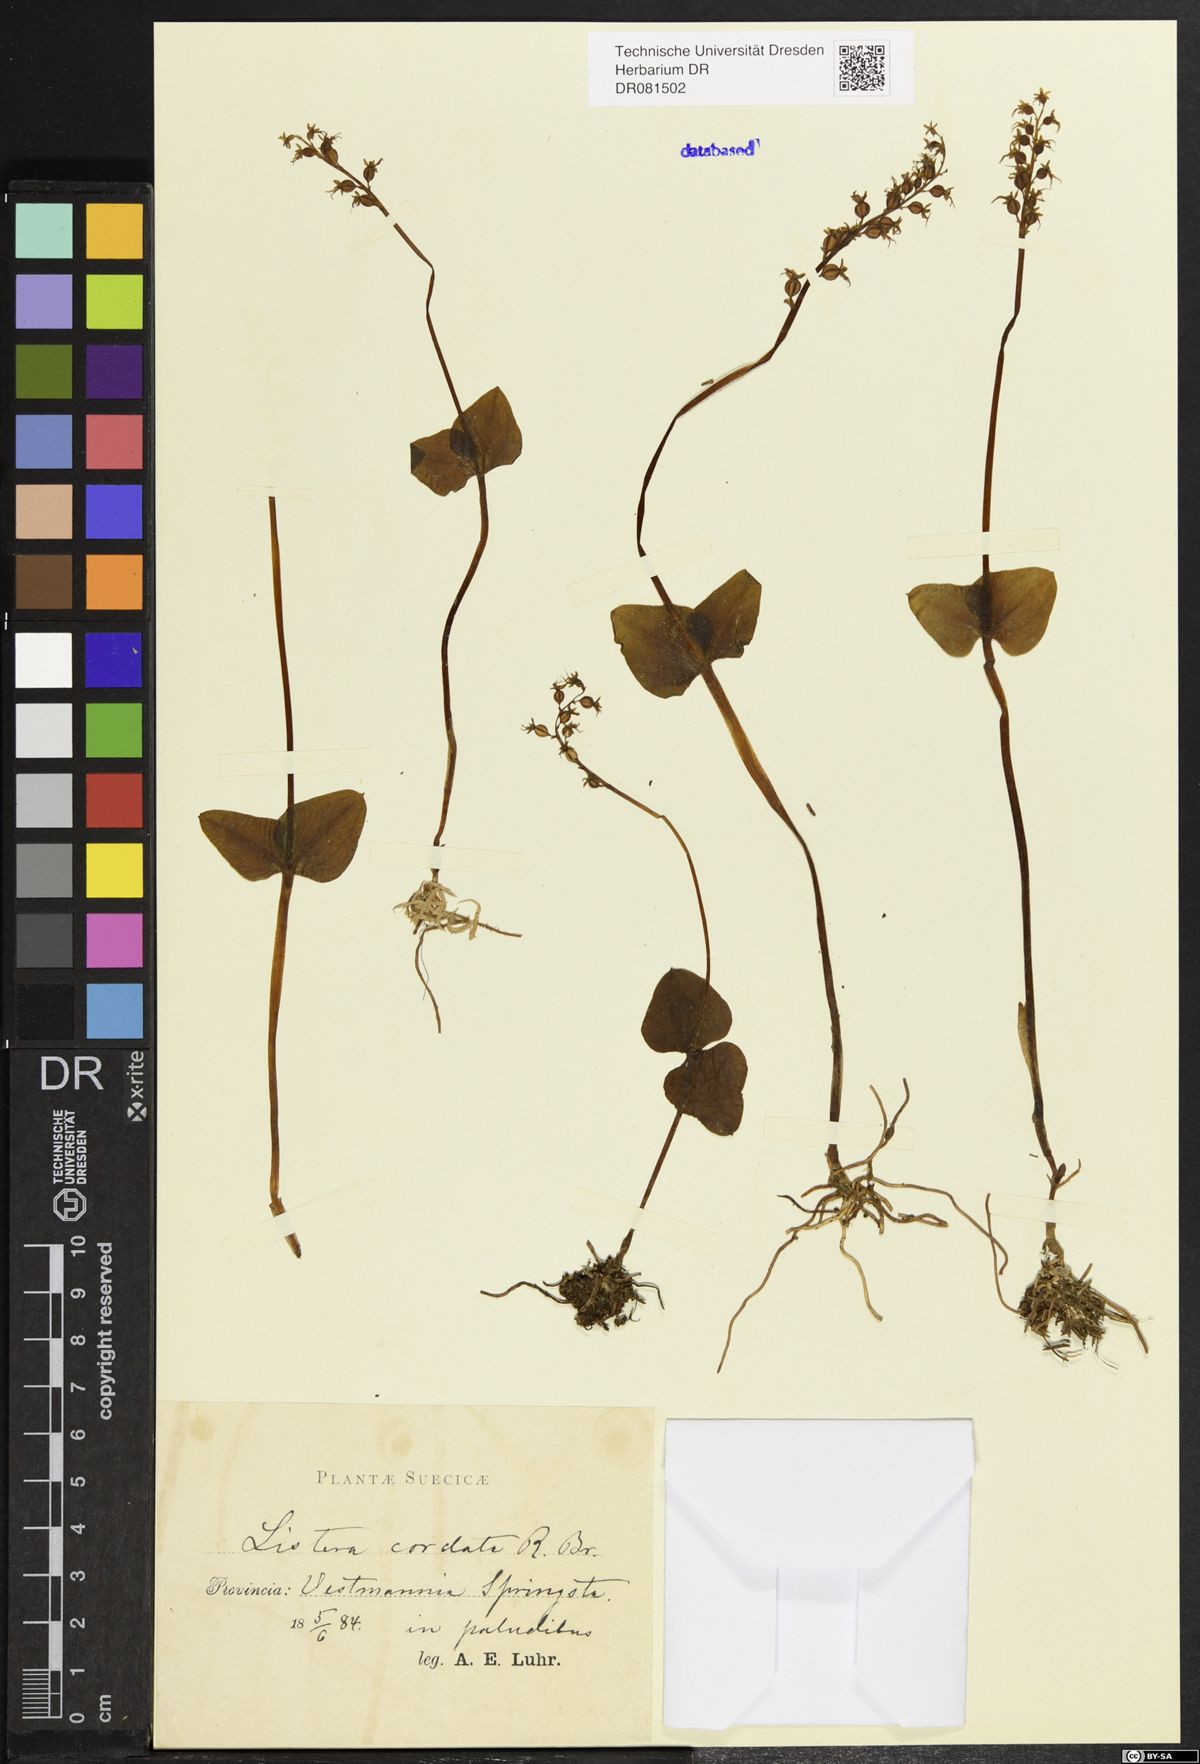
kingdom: Plantae
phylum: Tracheophyta
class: Liliopsida
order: Asparagales
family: Orchidaceae
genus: Neottia
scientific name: Neottia cordata
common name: Lesser twayblade
